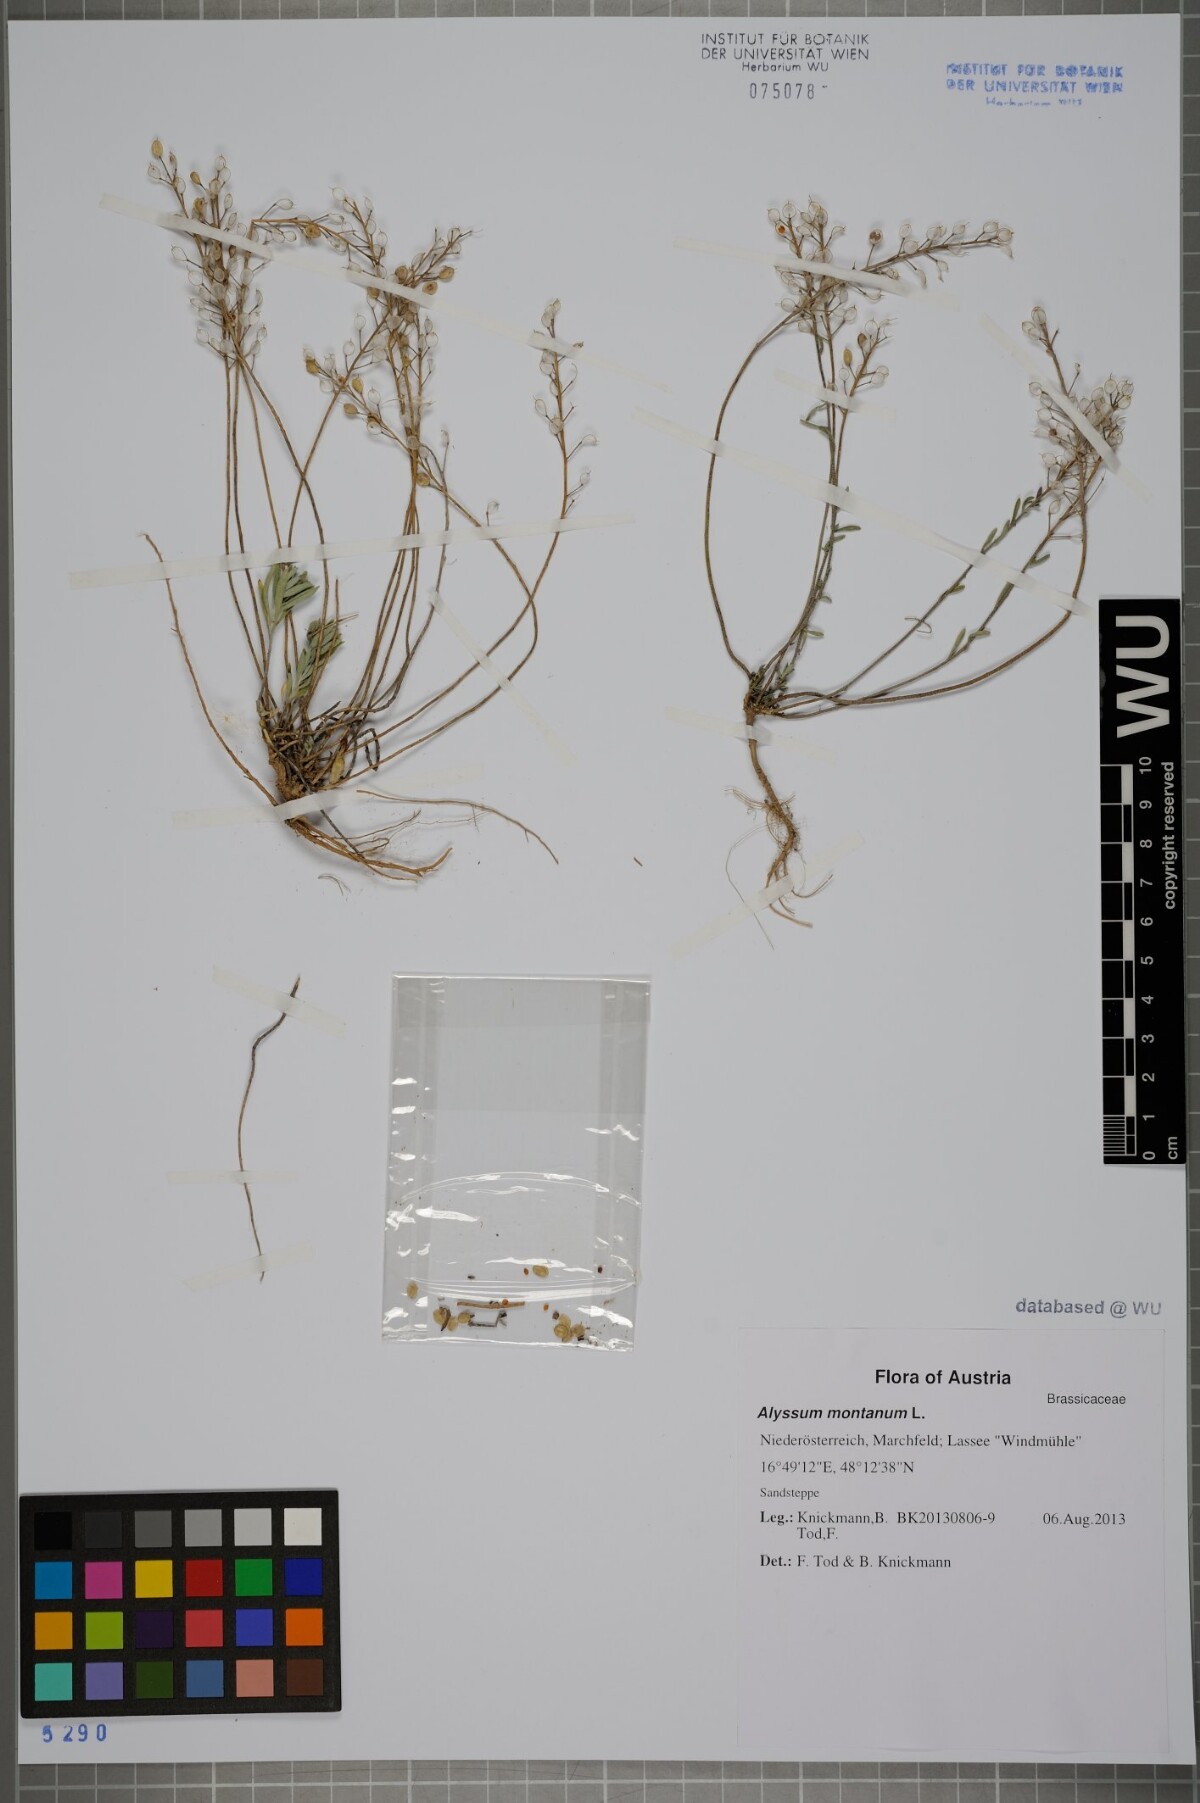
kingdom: Plantae
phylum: Tracheophyta
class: Magnoliopsida
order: Brassicales
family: Brassicaceae
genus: Alyssum
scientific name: Alyssum montanum
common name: Mountain alison
